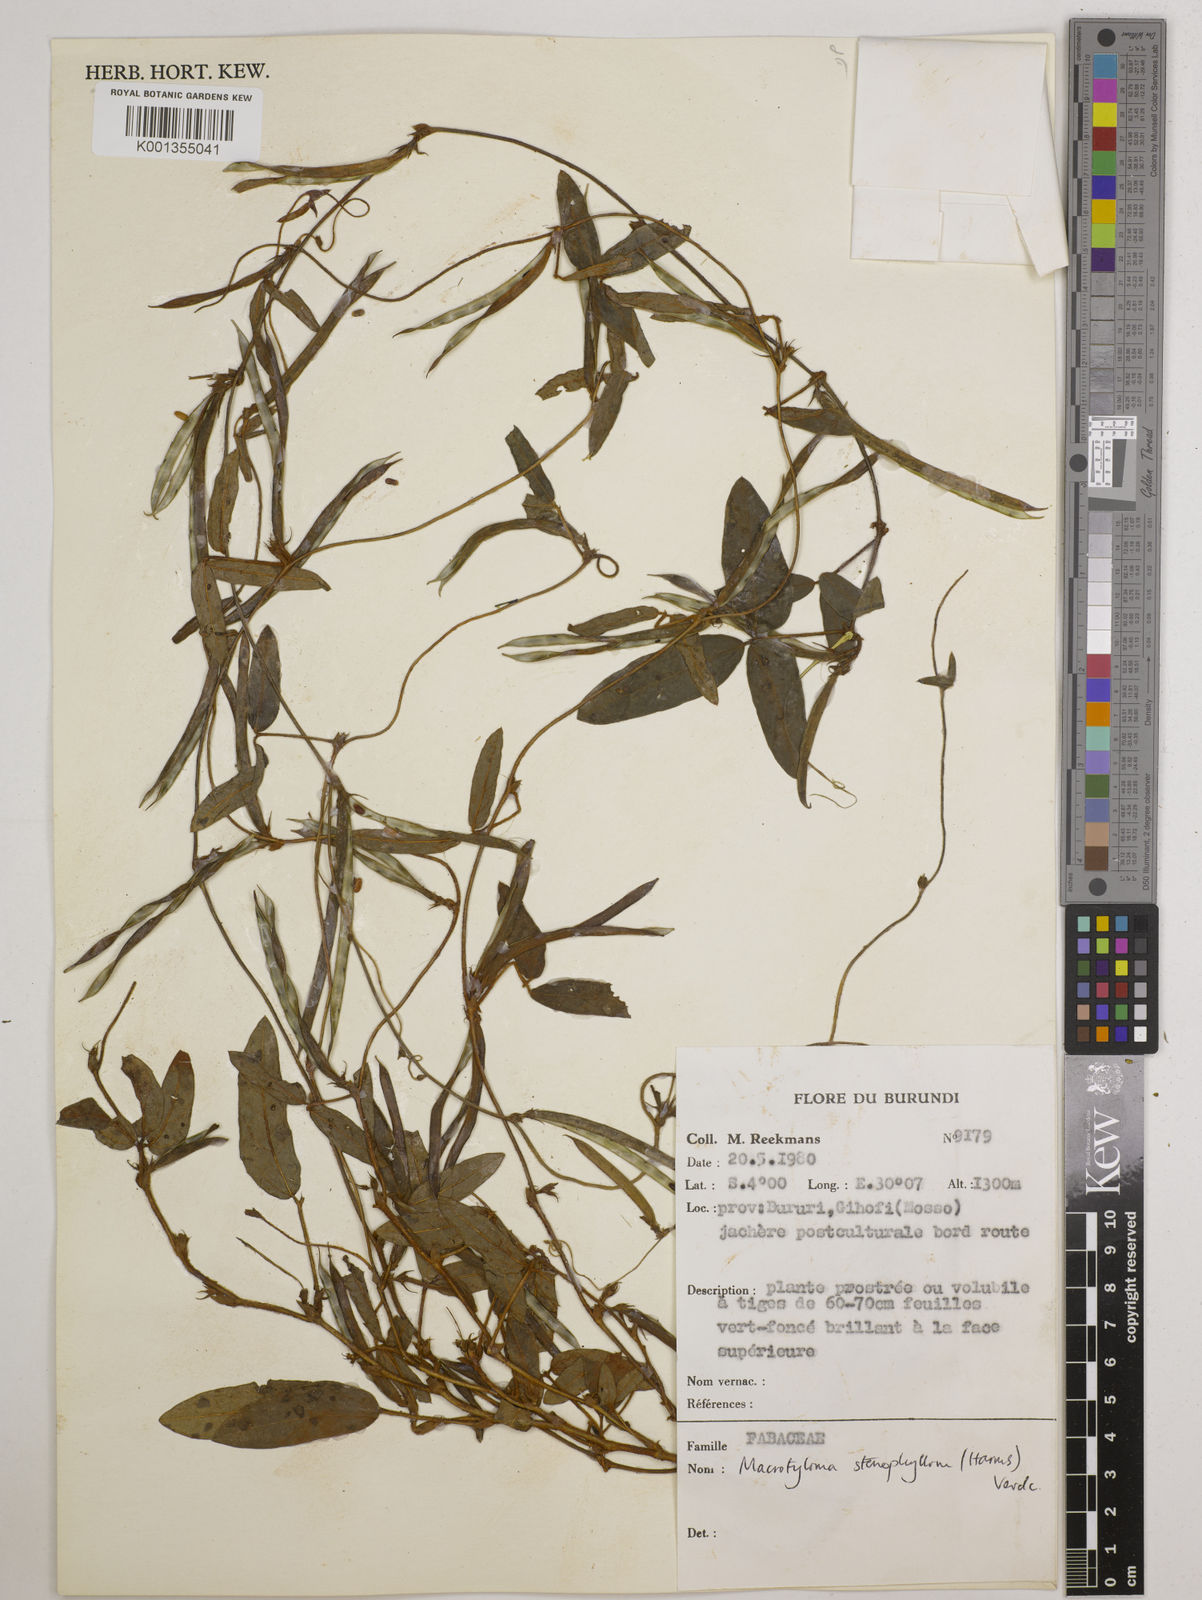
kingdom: Plantae
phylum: Tracheophyta
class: Magnoliopsida
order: Fabales
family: Fabaceae
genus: Macrotyloma
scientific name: Macrotyloma stenophyllum
